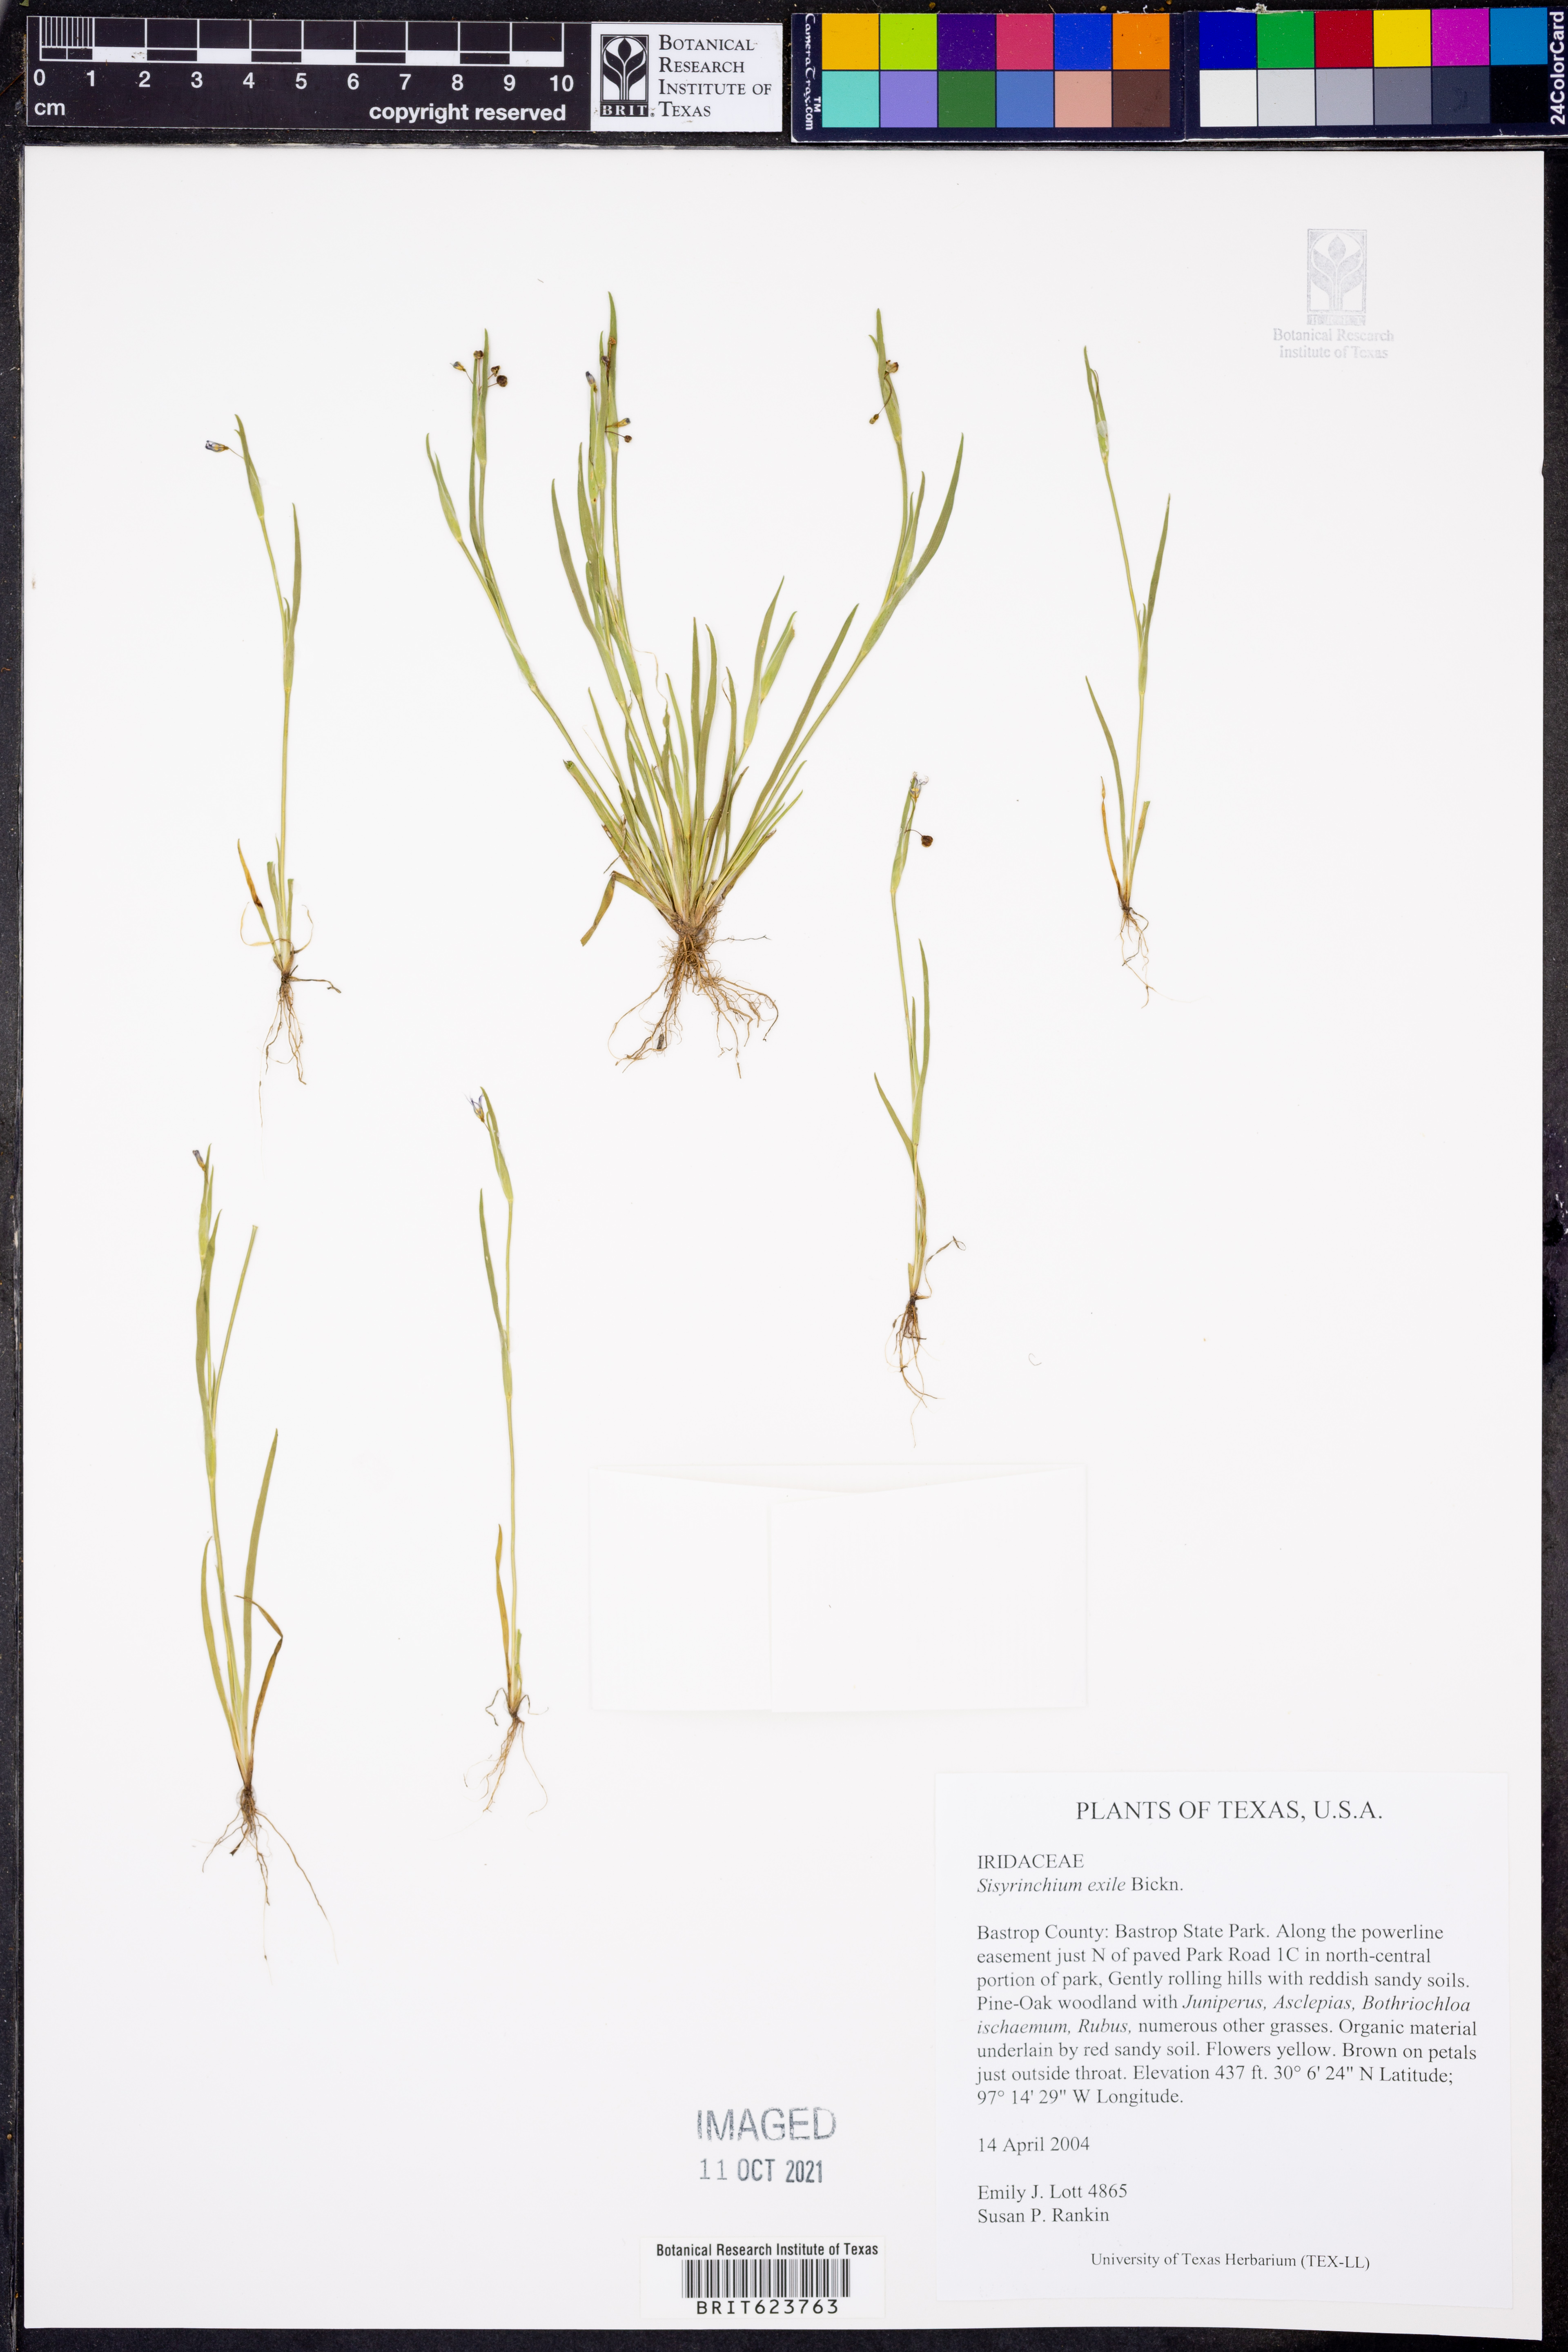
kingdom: Plantae
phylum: Tracheophyta
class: Liliopsida
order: Asparagales
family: Iridaceae
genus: Sisyrinchium
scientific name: Sisyrinchium rosulatum
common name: Annual blue-eyed grass
